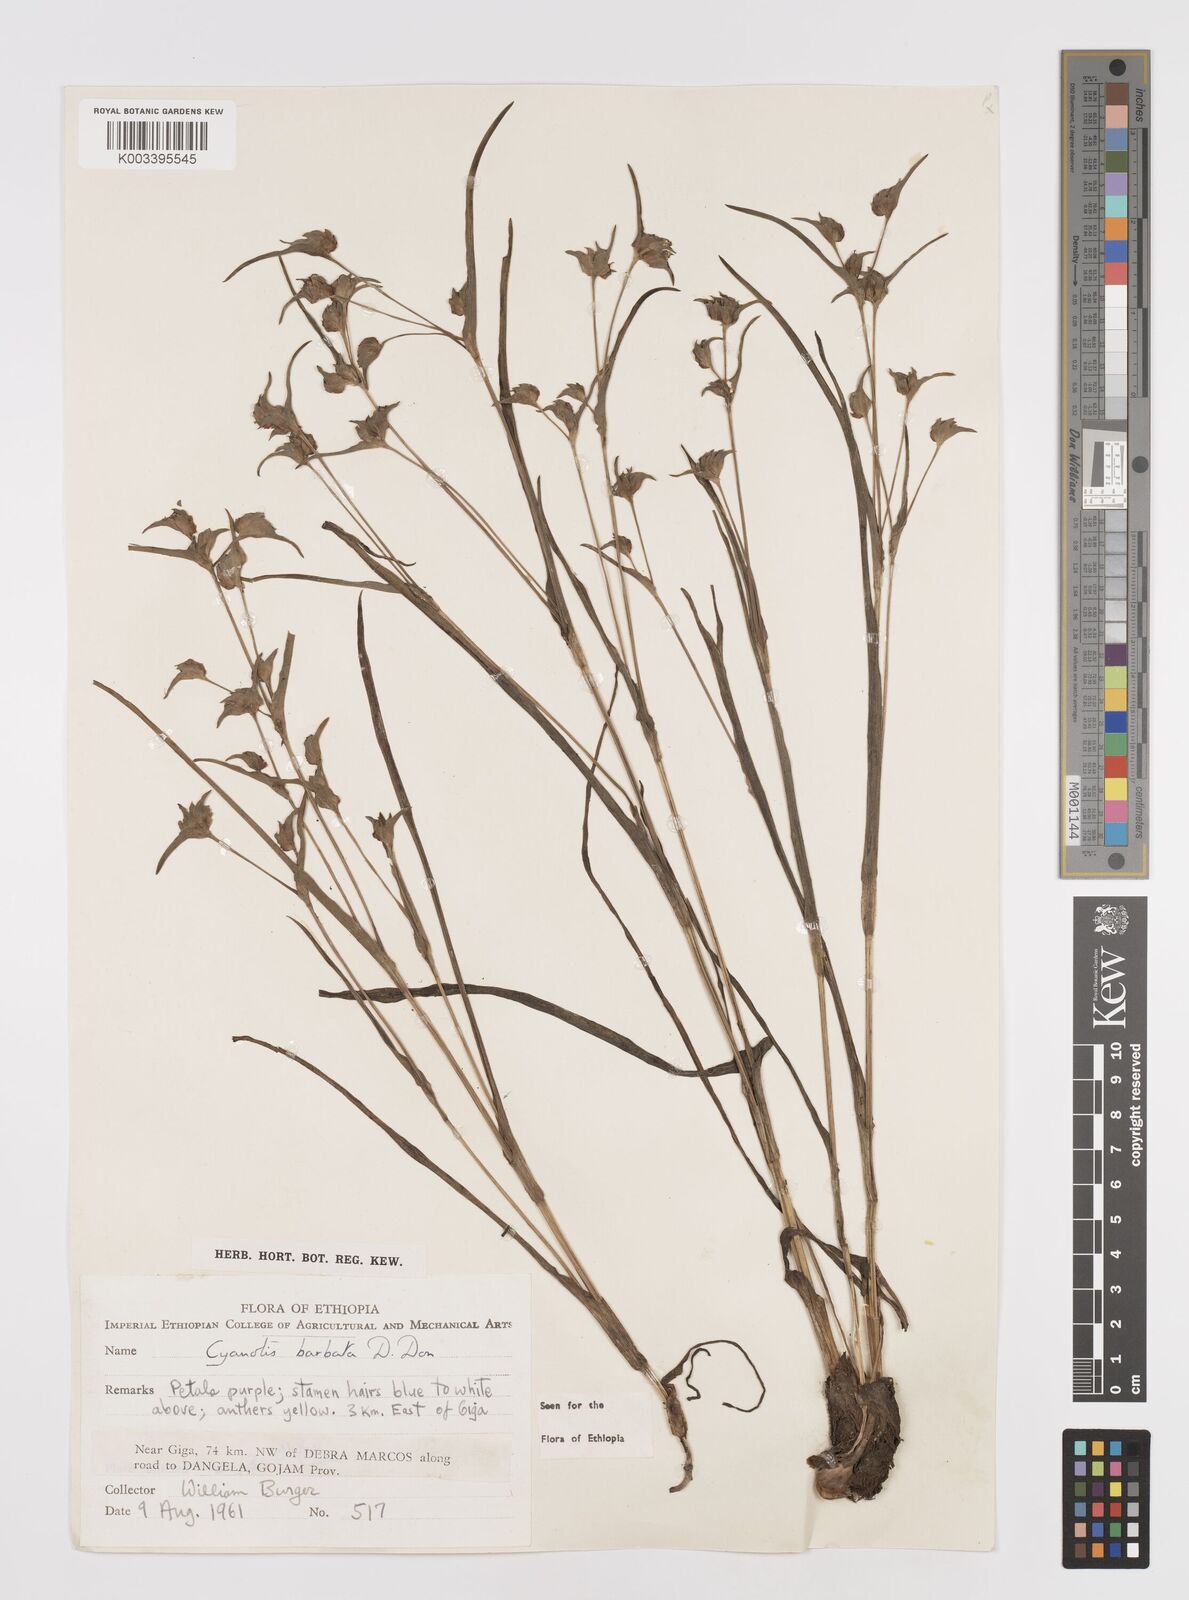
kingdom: Plantae
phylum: Tracheophyta
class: Liliopsida
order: Commelinales
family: Commelinaceae
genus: Cyanotis
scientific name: Cyanotis vaga
